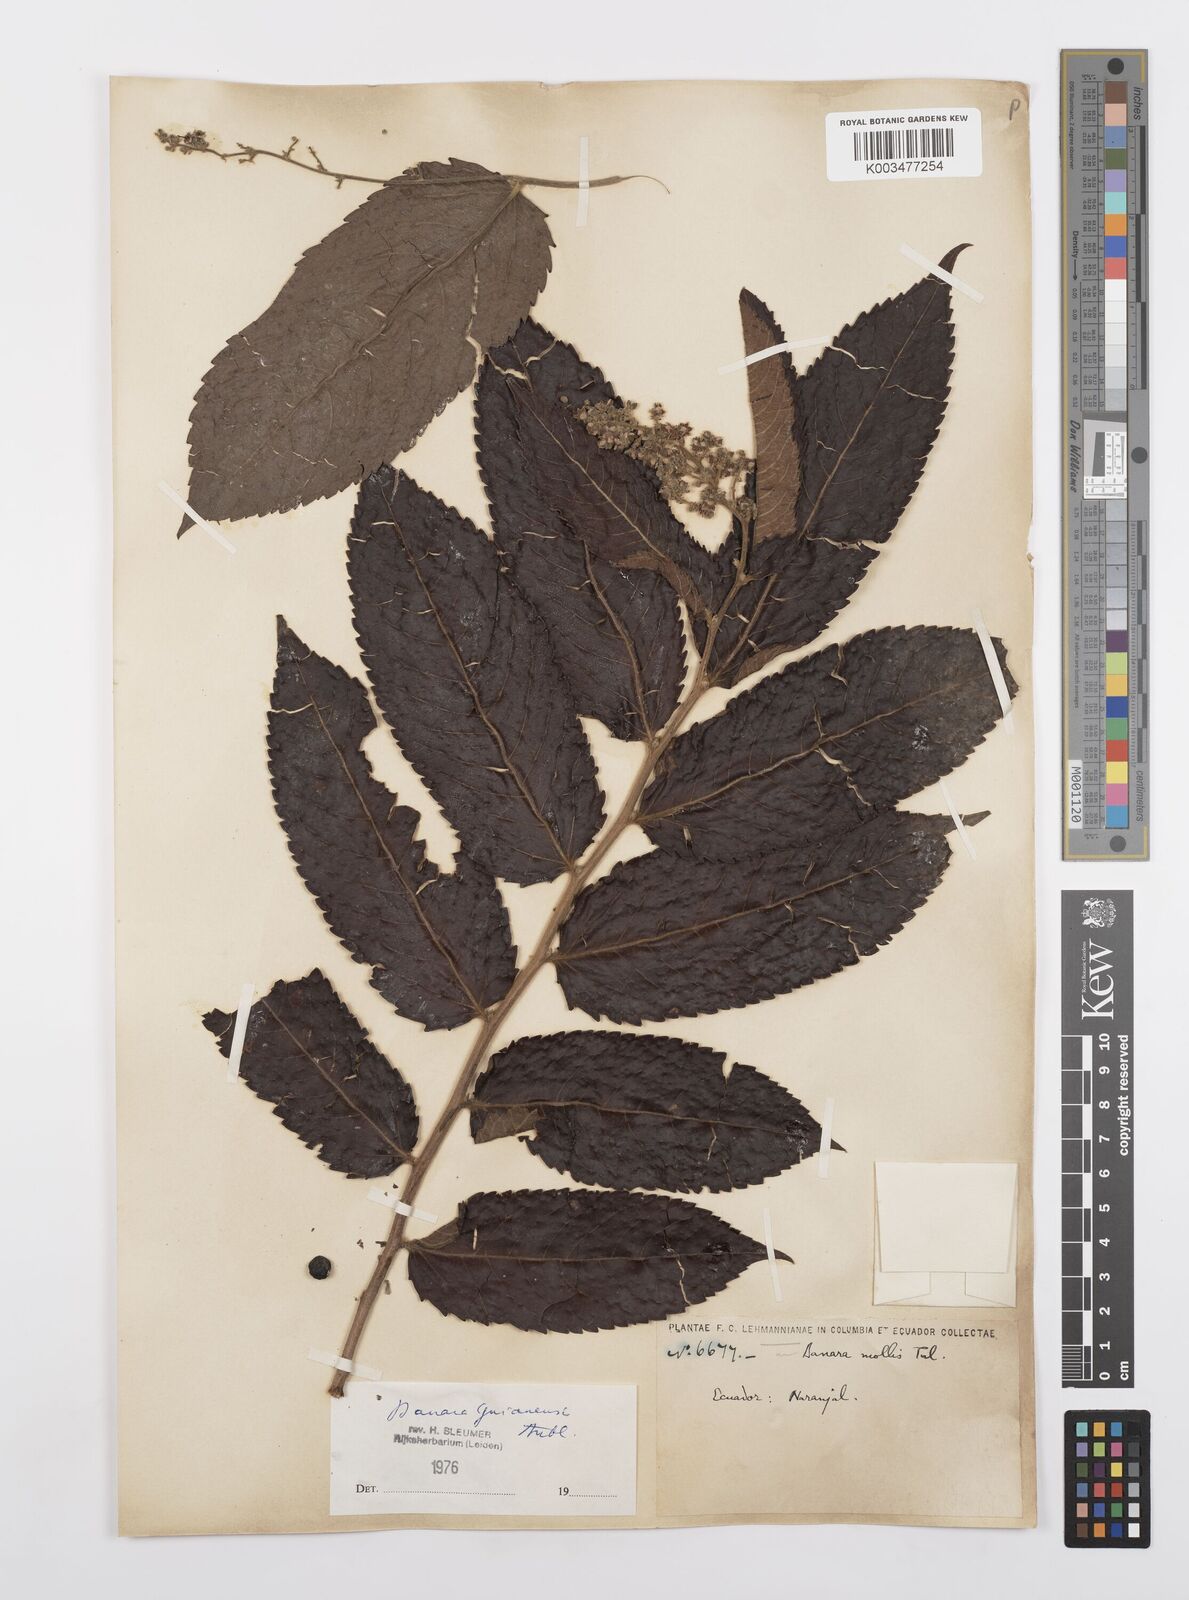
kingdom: Plantae
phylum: Tracheophyta
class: Magnoliopsida
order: Malpighiales
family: Salicaceae
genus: Banara
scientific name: Banara guianensis
